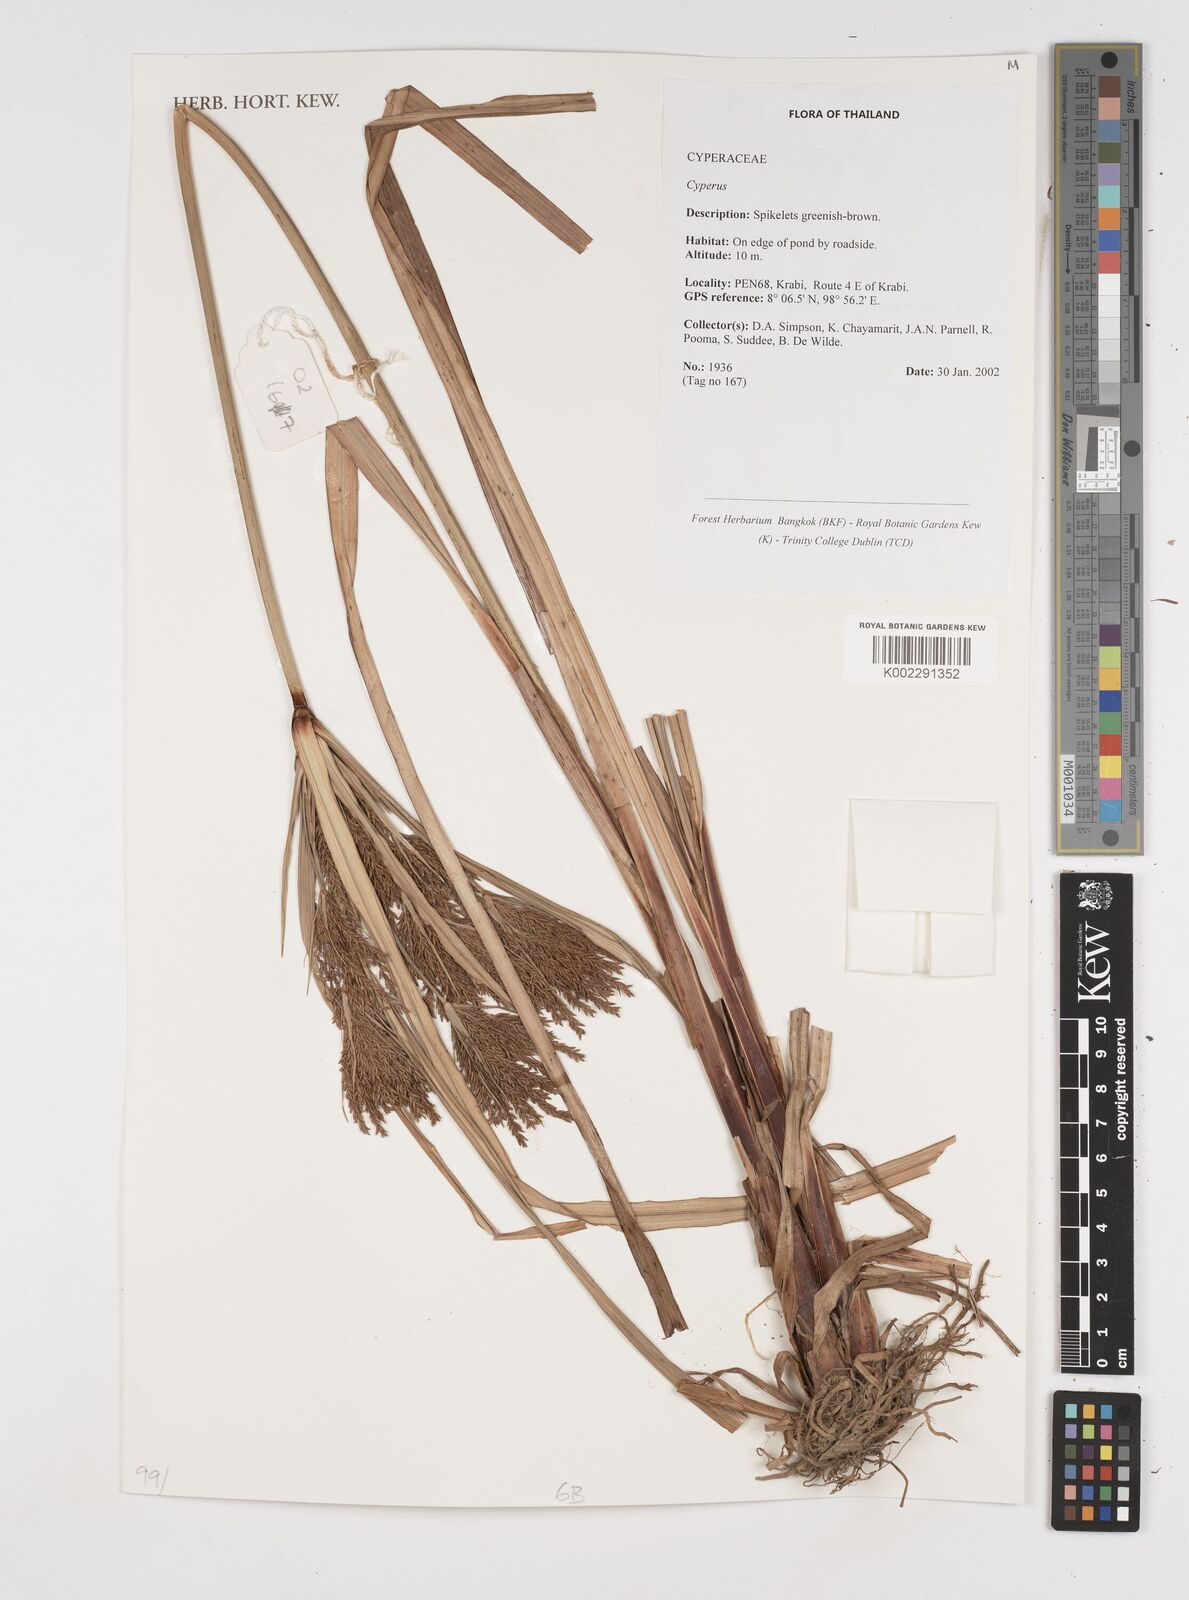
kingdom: Plantae
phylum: Tracheophyta
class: Liliopsida
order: Poales
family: Cyperaceae
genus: Cyperus
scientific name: Cyperus
